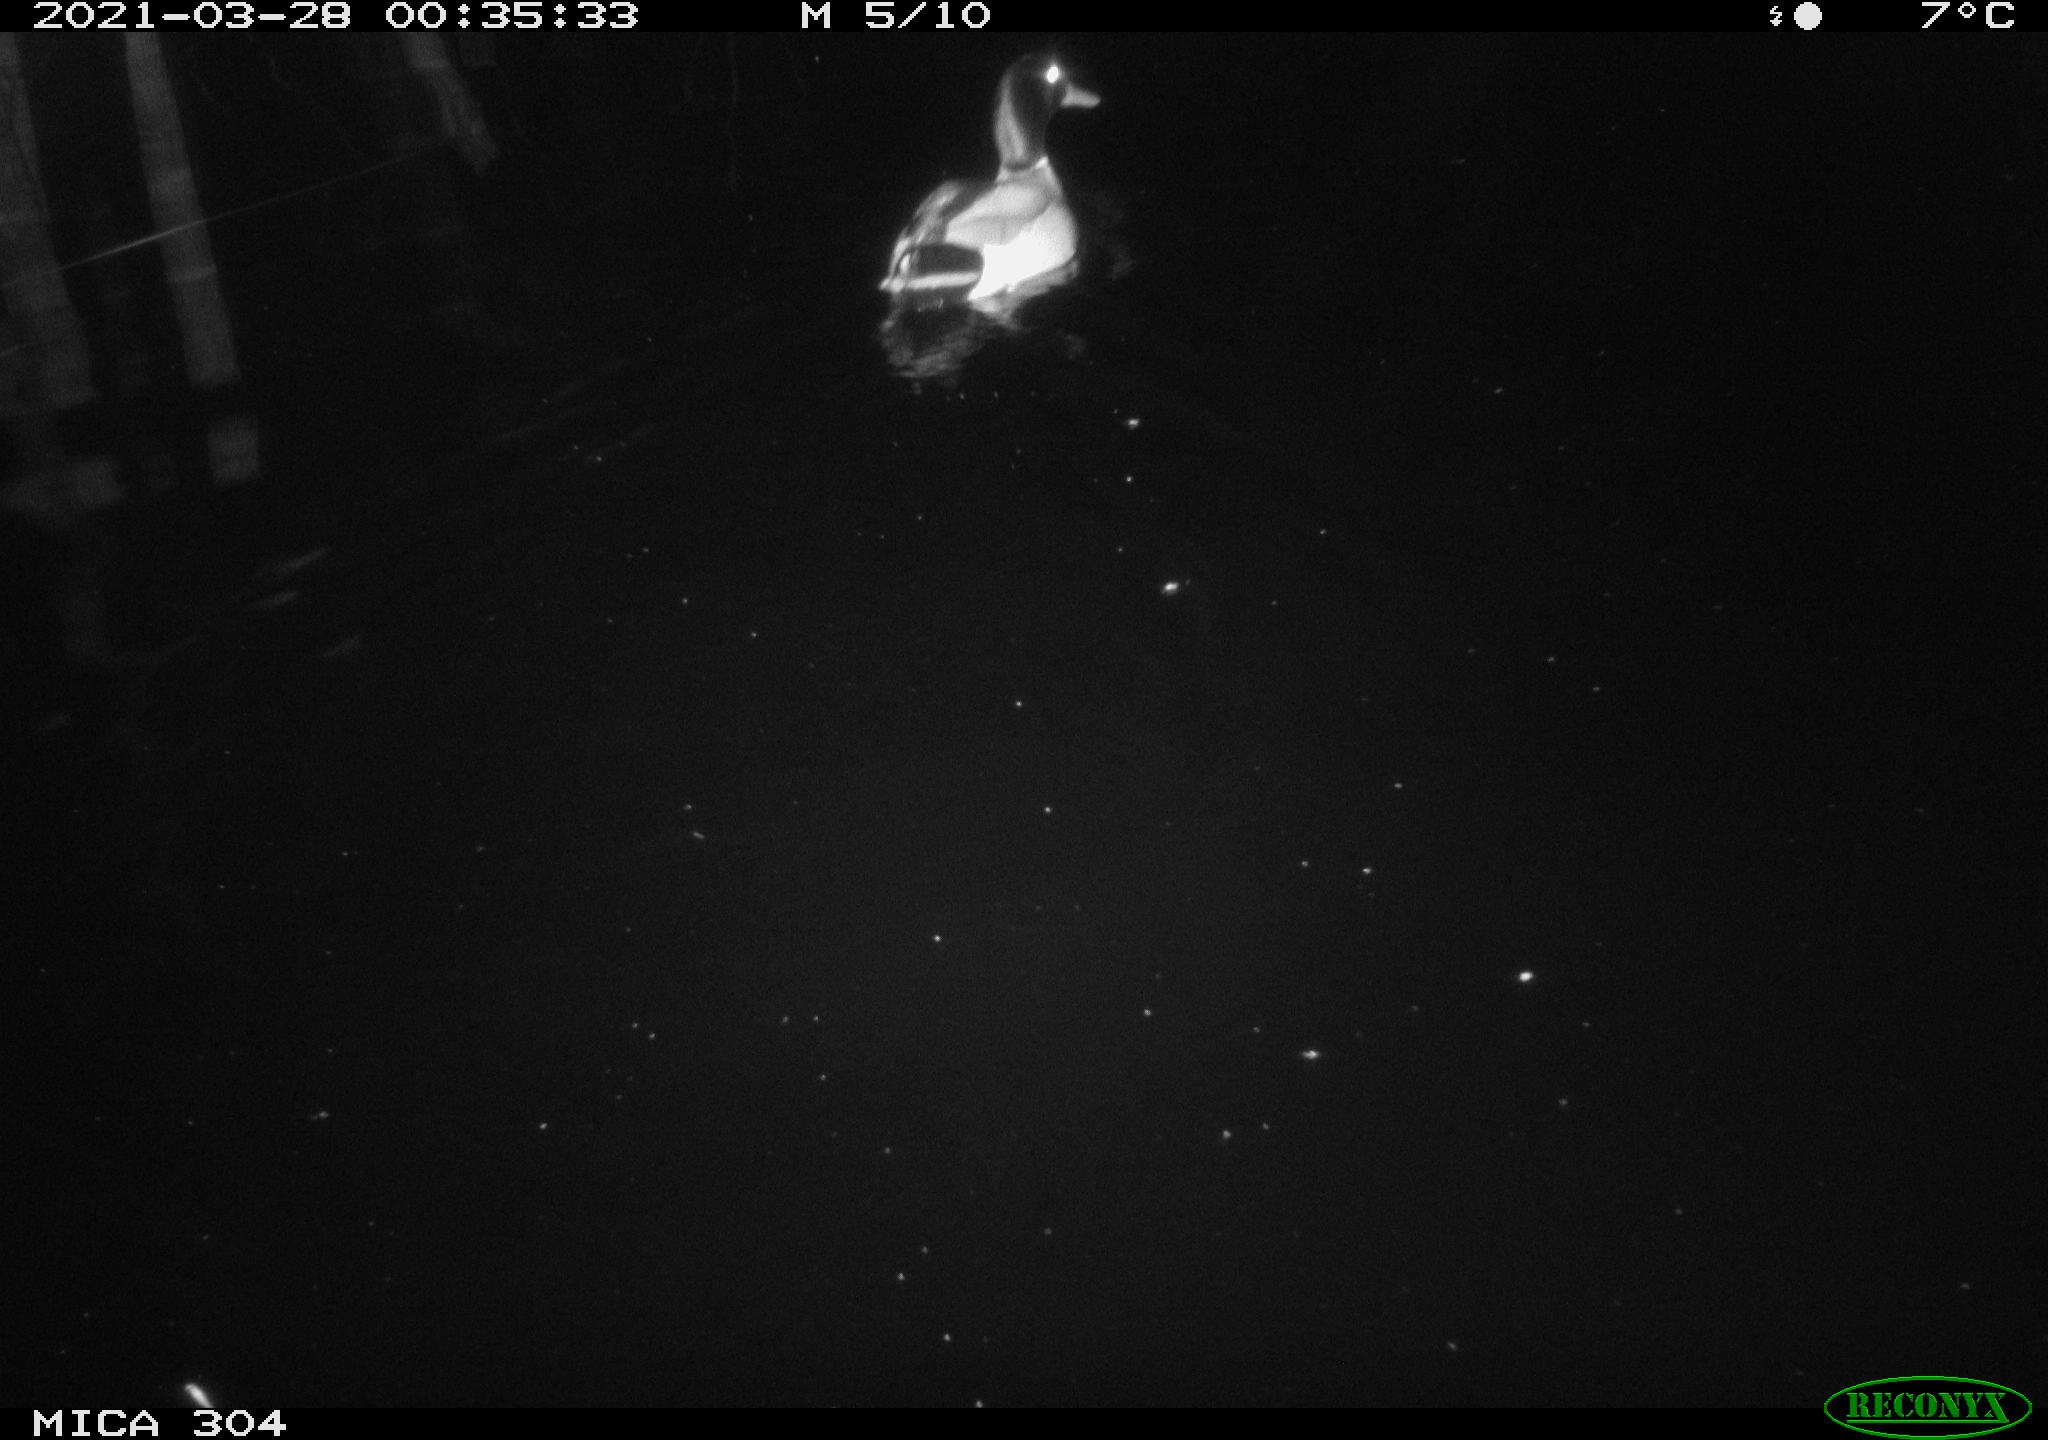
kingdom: Animalia
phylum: Chordata
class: Aves
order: Anseriformes
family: Anatidae
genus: Anas
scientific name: Anas platyrhynchos
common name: Mallard
